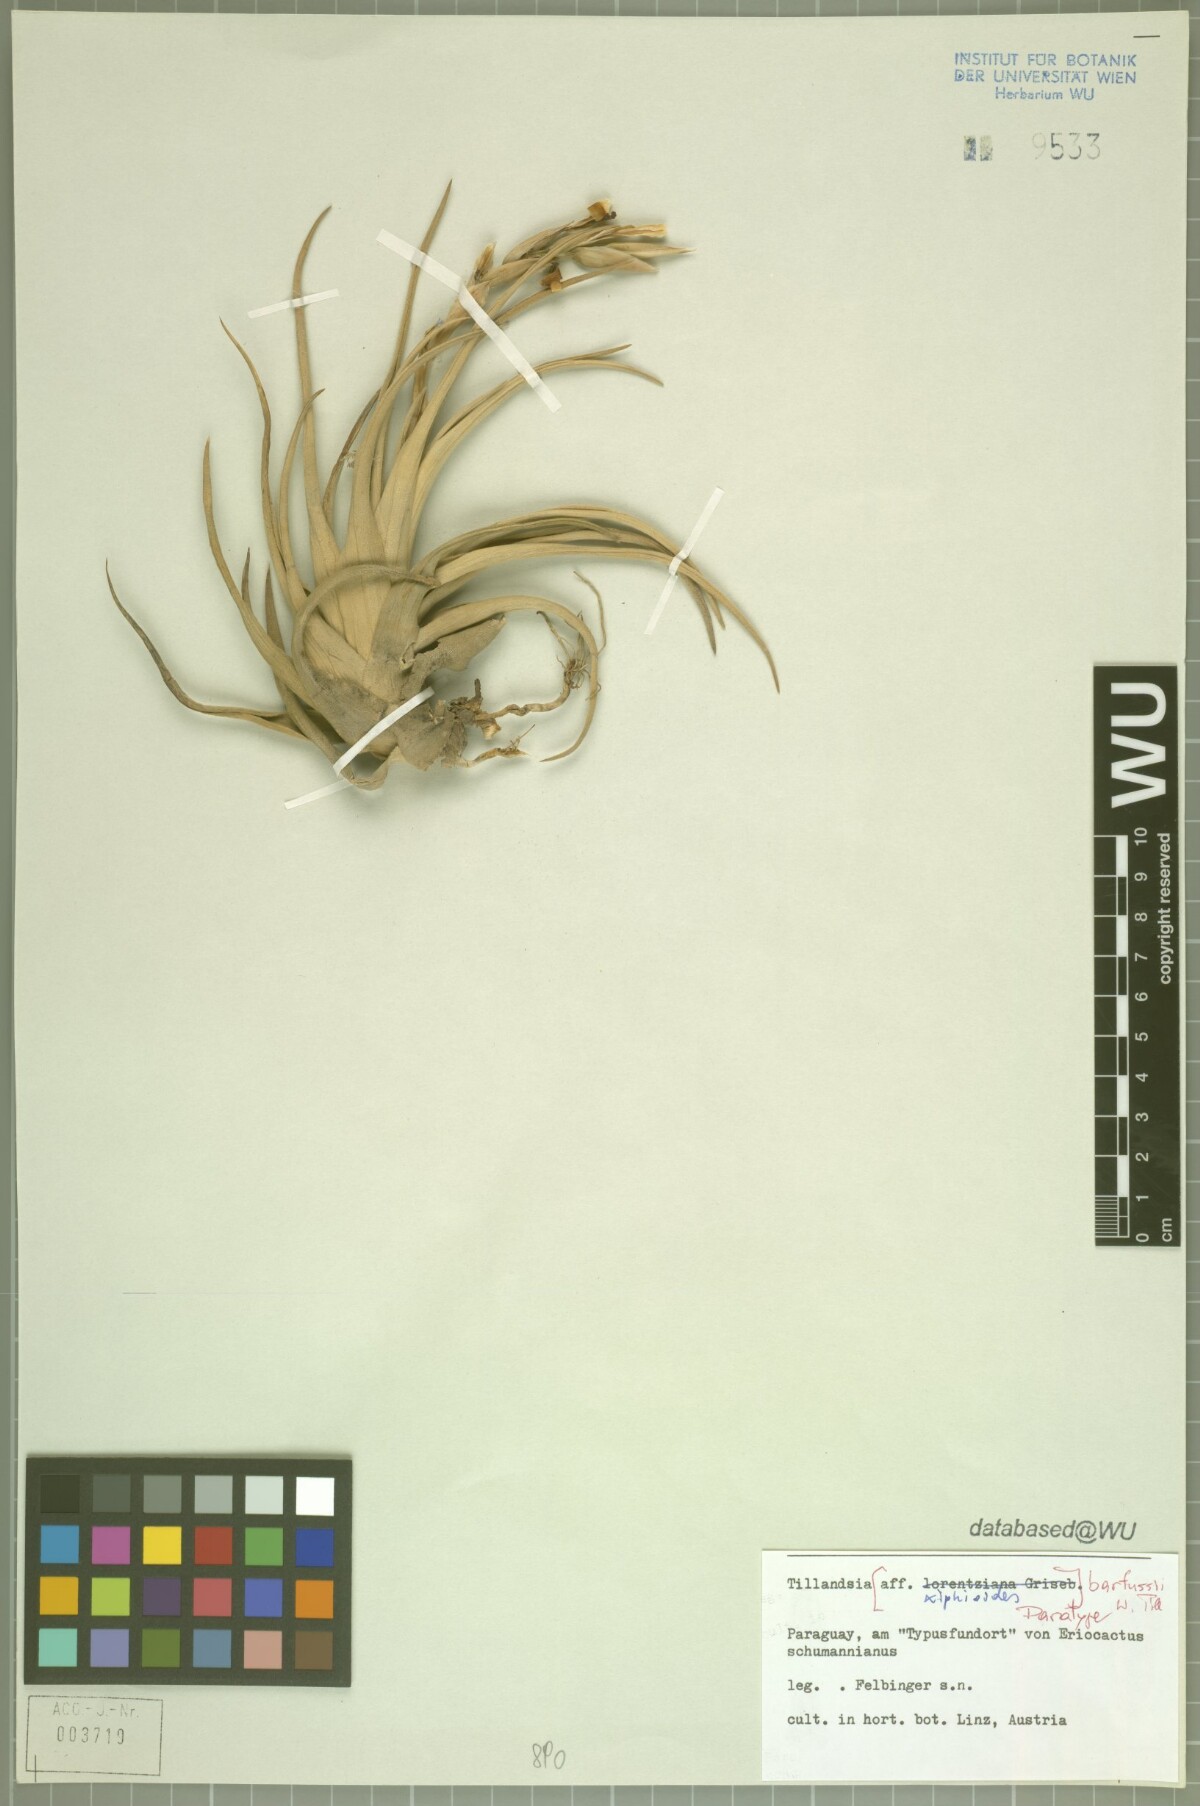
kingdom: Plantae
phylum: Tracheophyta
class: Liliopsida
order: Poales
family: Bromeliaceae
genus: Tillandsia
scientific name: Tillandsia barfussii
